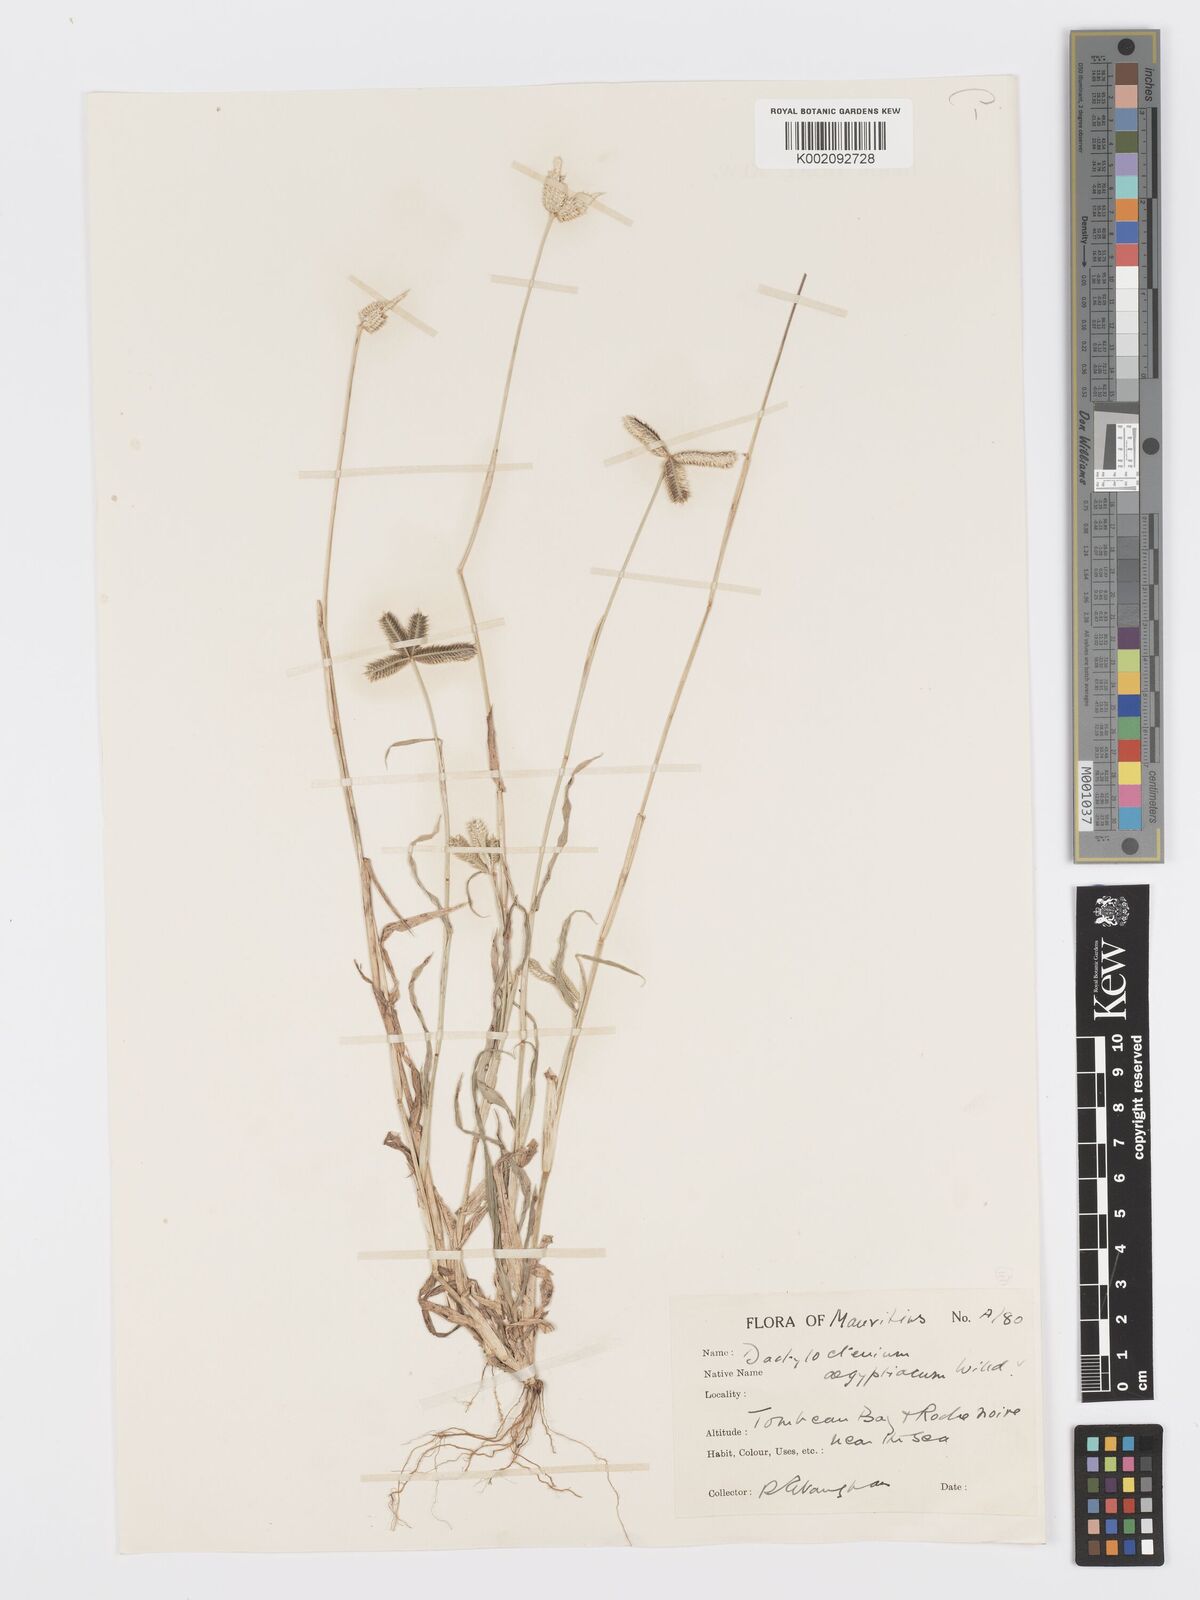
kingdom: Plantae
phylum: Tracheophyta
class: Liliopsida
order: Poales
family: Poaceae
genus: Dactyloctenium
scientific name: Dactyloctenium aegyptium
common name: Egyptian grass
